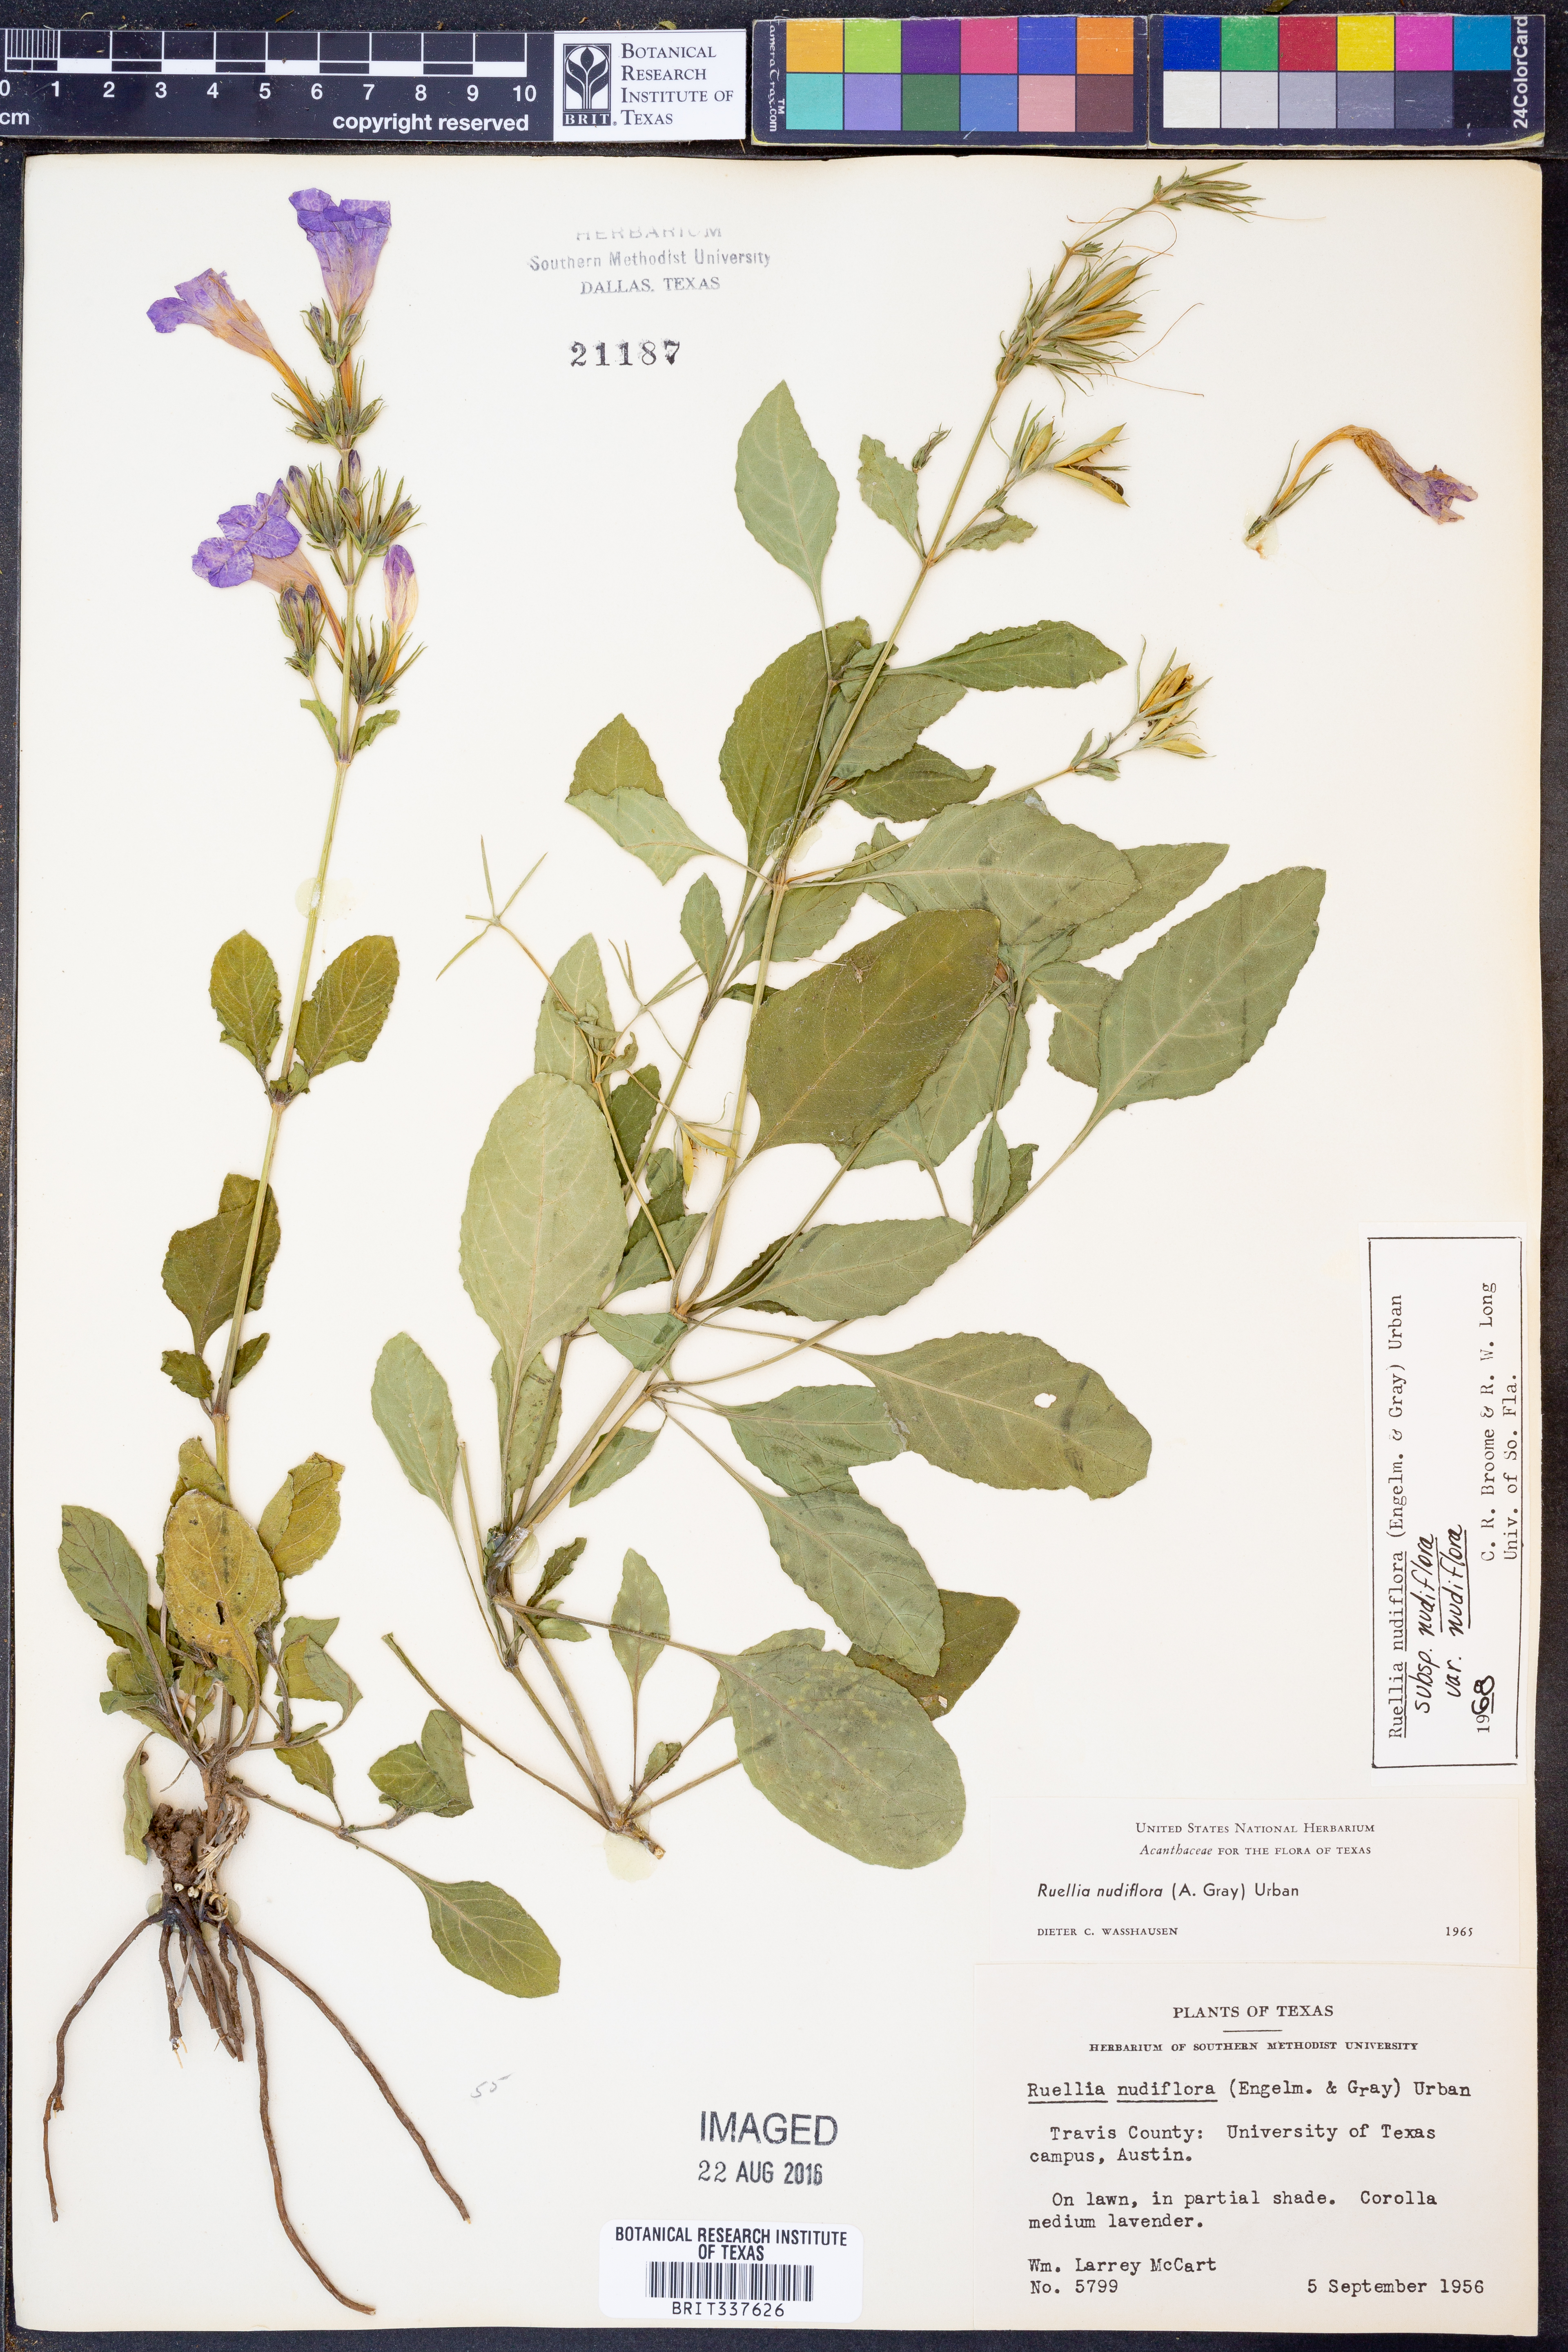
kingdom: Plantae
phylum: Tracheophyta
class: Magnoliopsida
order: Lamiales
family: Acanthaceae
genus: Ruellia
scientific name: Ruellia ciliatiflora
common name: Hairyflower wild petunia
